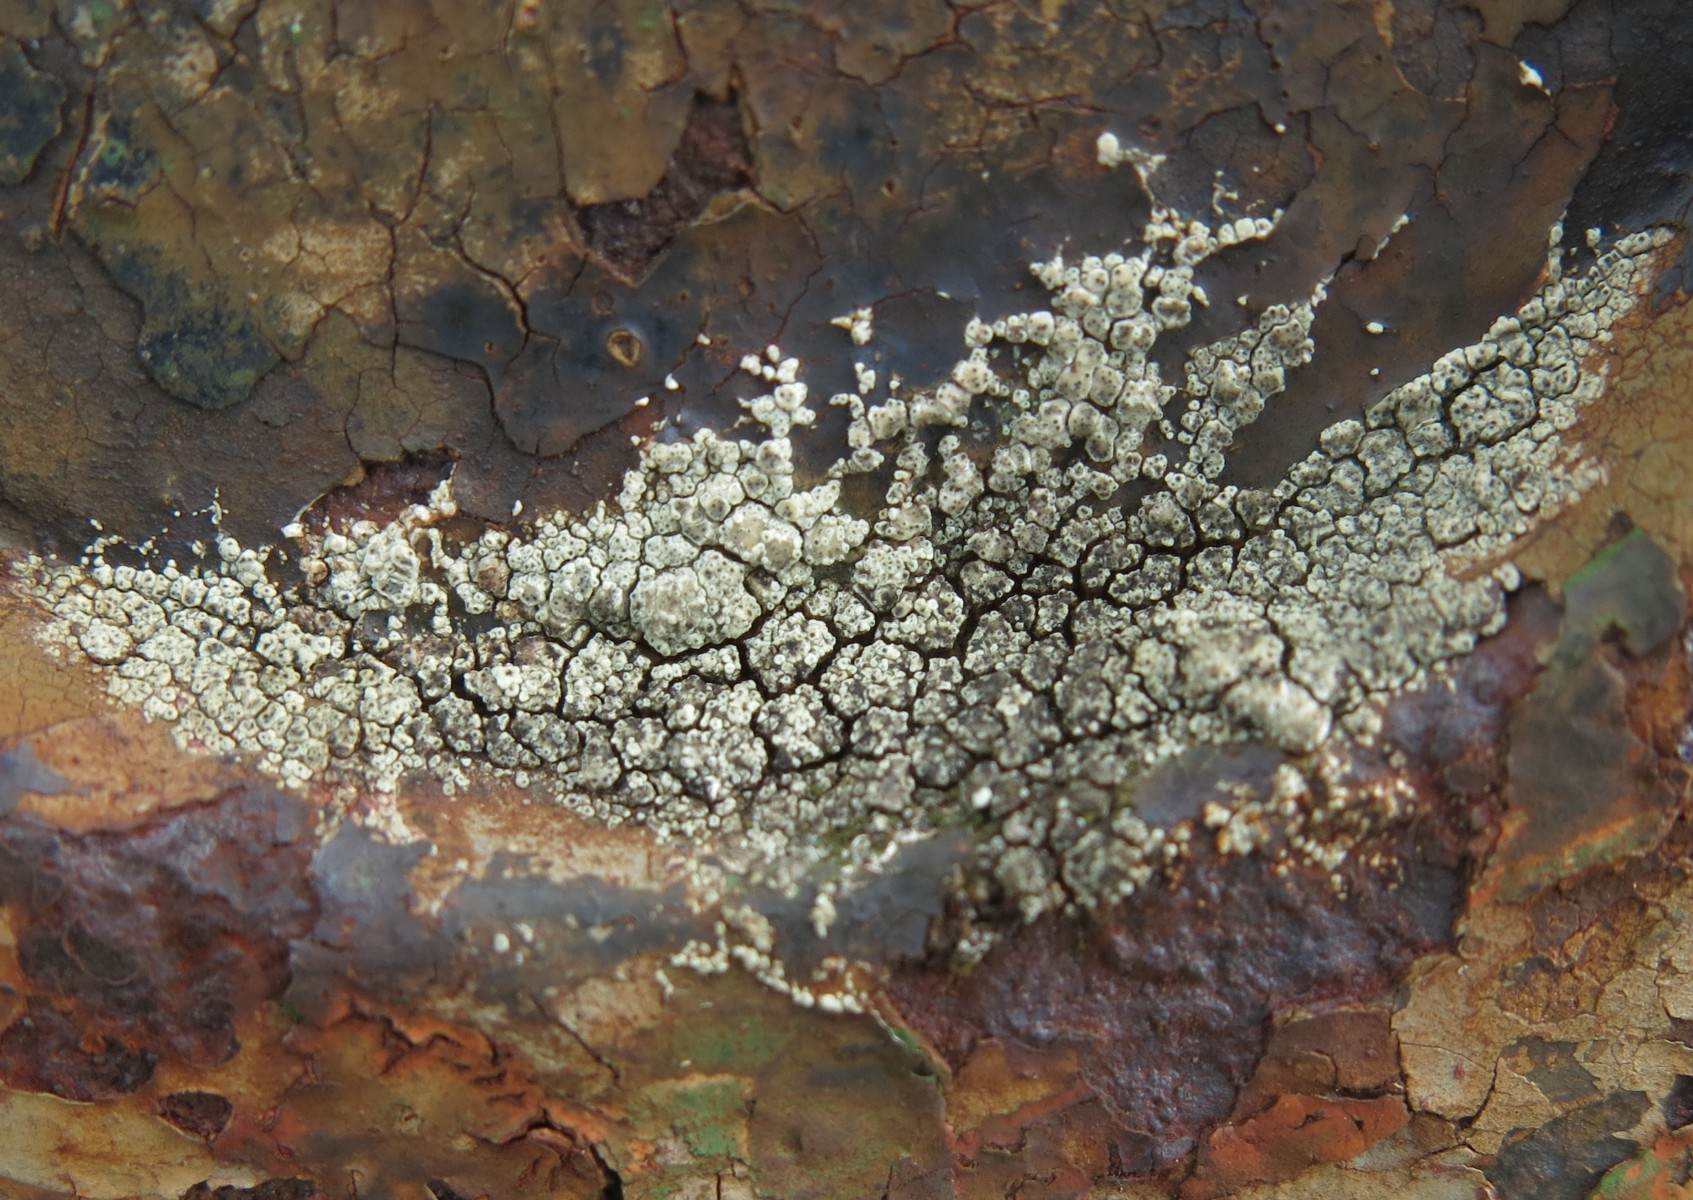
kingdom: Fungi
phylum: Ascomycota
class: Lecanoromycetes
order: Lecanorales
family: Lecanoraceae
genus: Lecanora
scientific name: Lecanora polytropa
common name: bleggrøn kantskivelav
